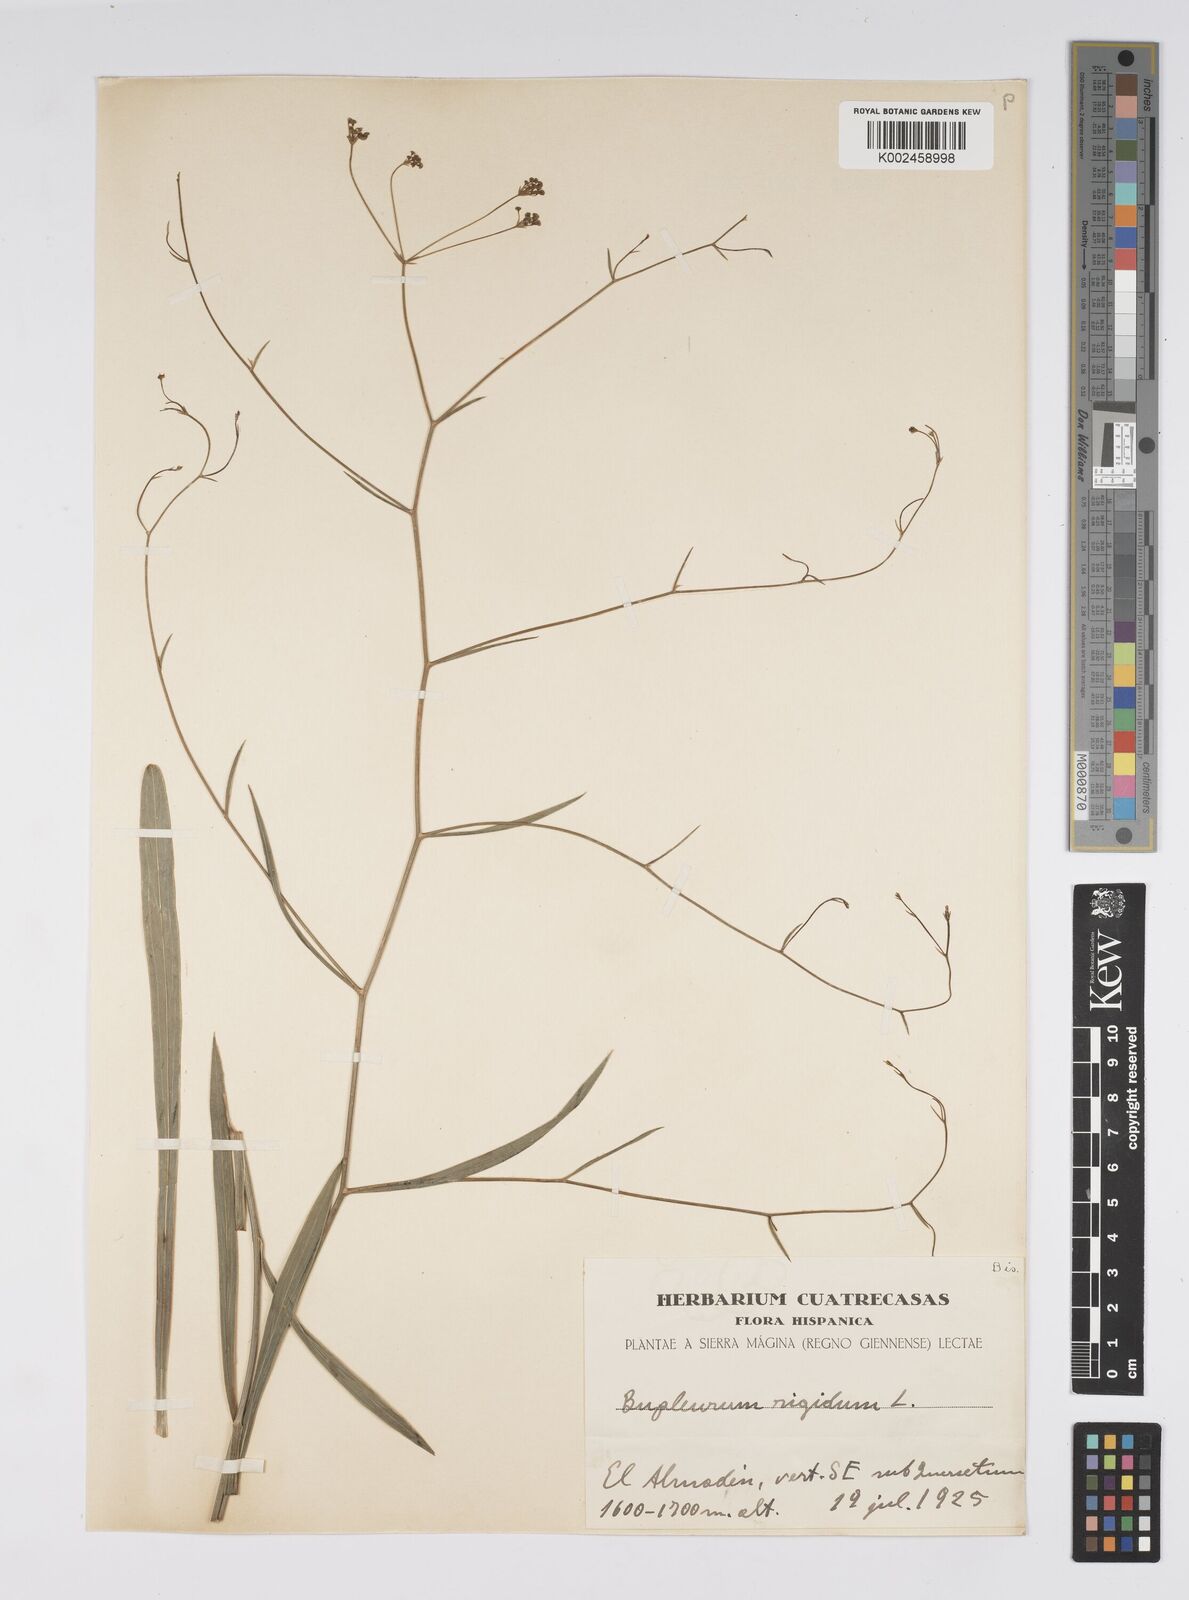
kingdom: Plantae
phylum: Tracheophyta
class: Magnoliopsida
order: Apiales
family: Apiaceae
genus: Bupleurum
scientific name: Bupleurum rigidum
